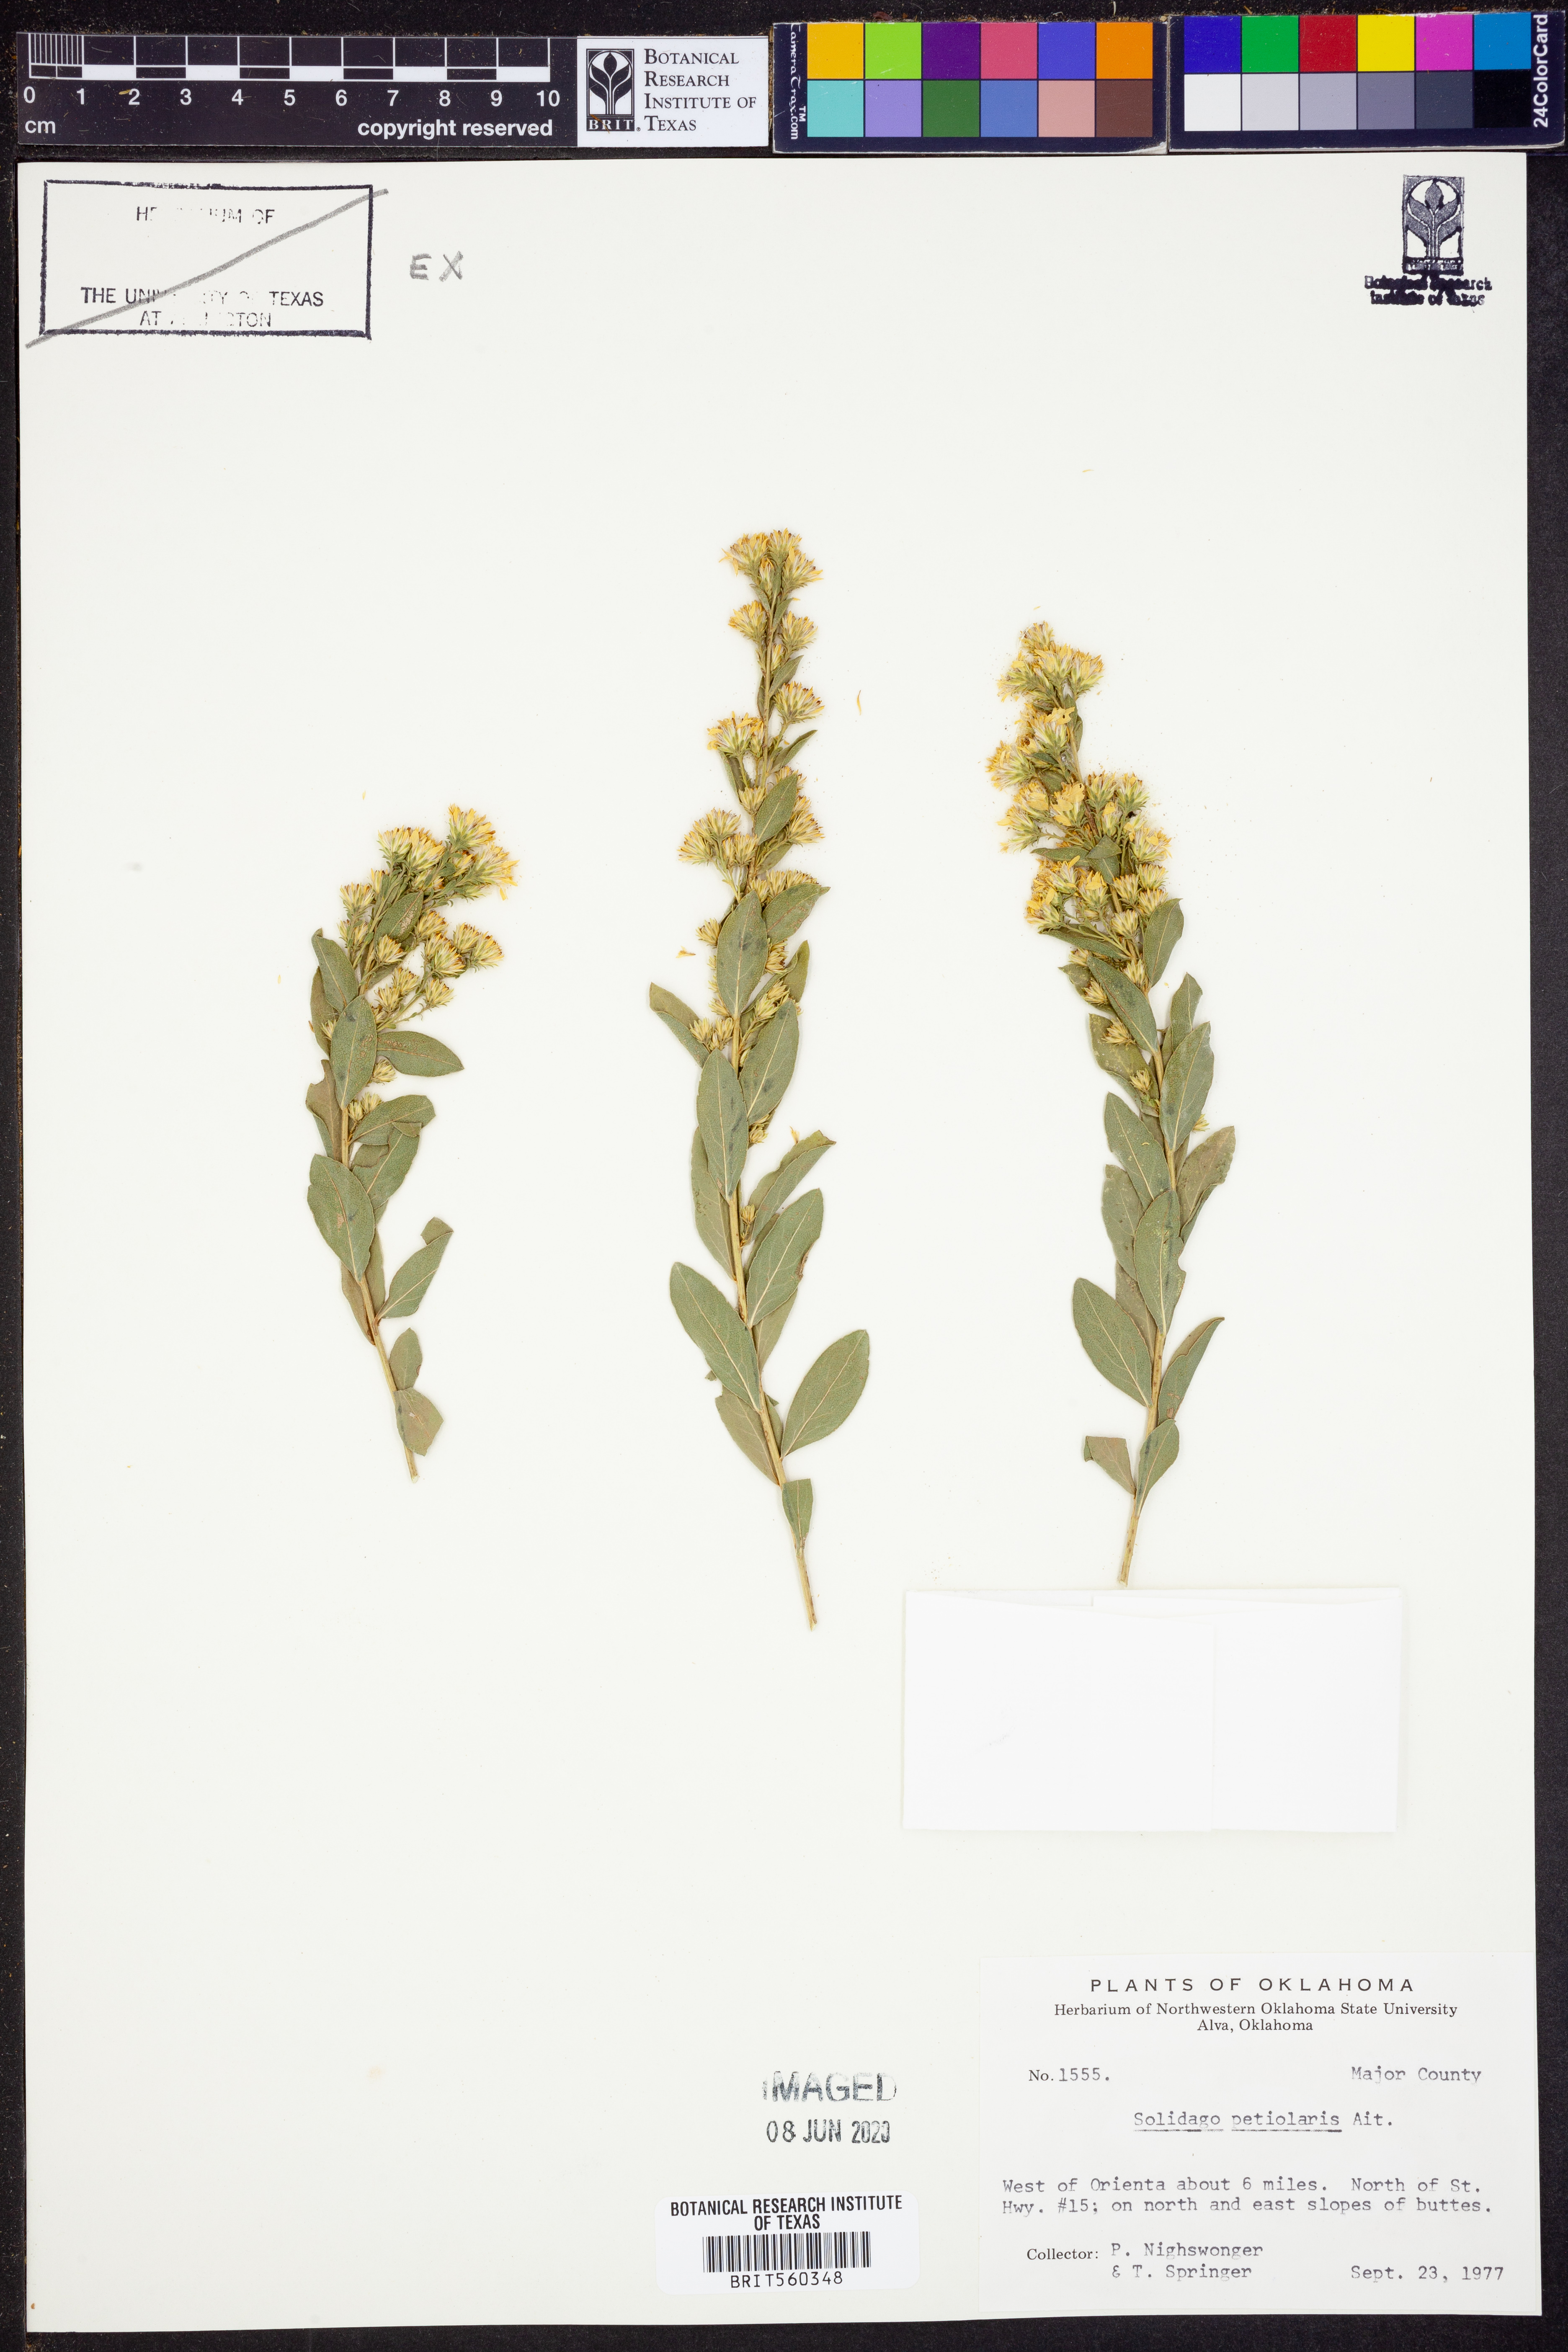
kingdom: Plantae
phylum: Tracheophyta
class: Magnoliopsida
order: Asterales
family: Asteraceae
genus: Solidago
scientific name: Solidago petiolaris
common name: Downy ragged goldenrod
